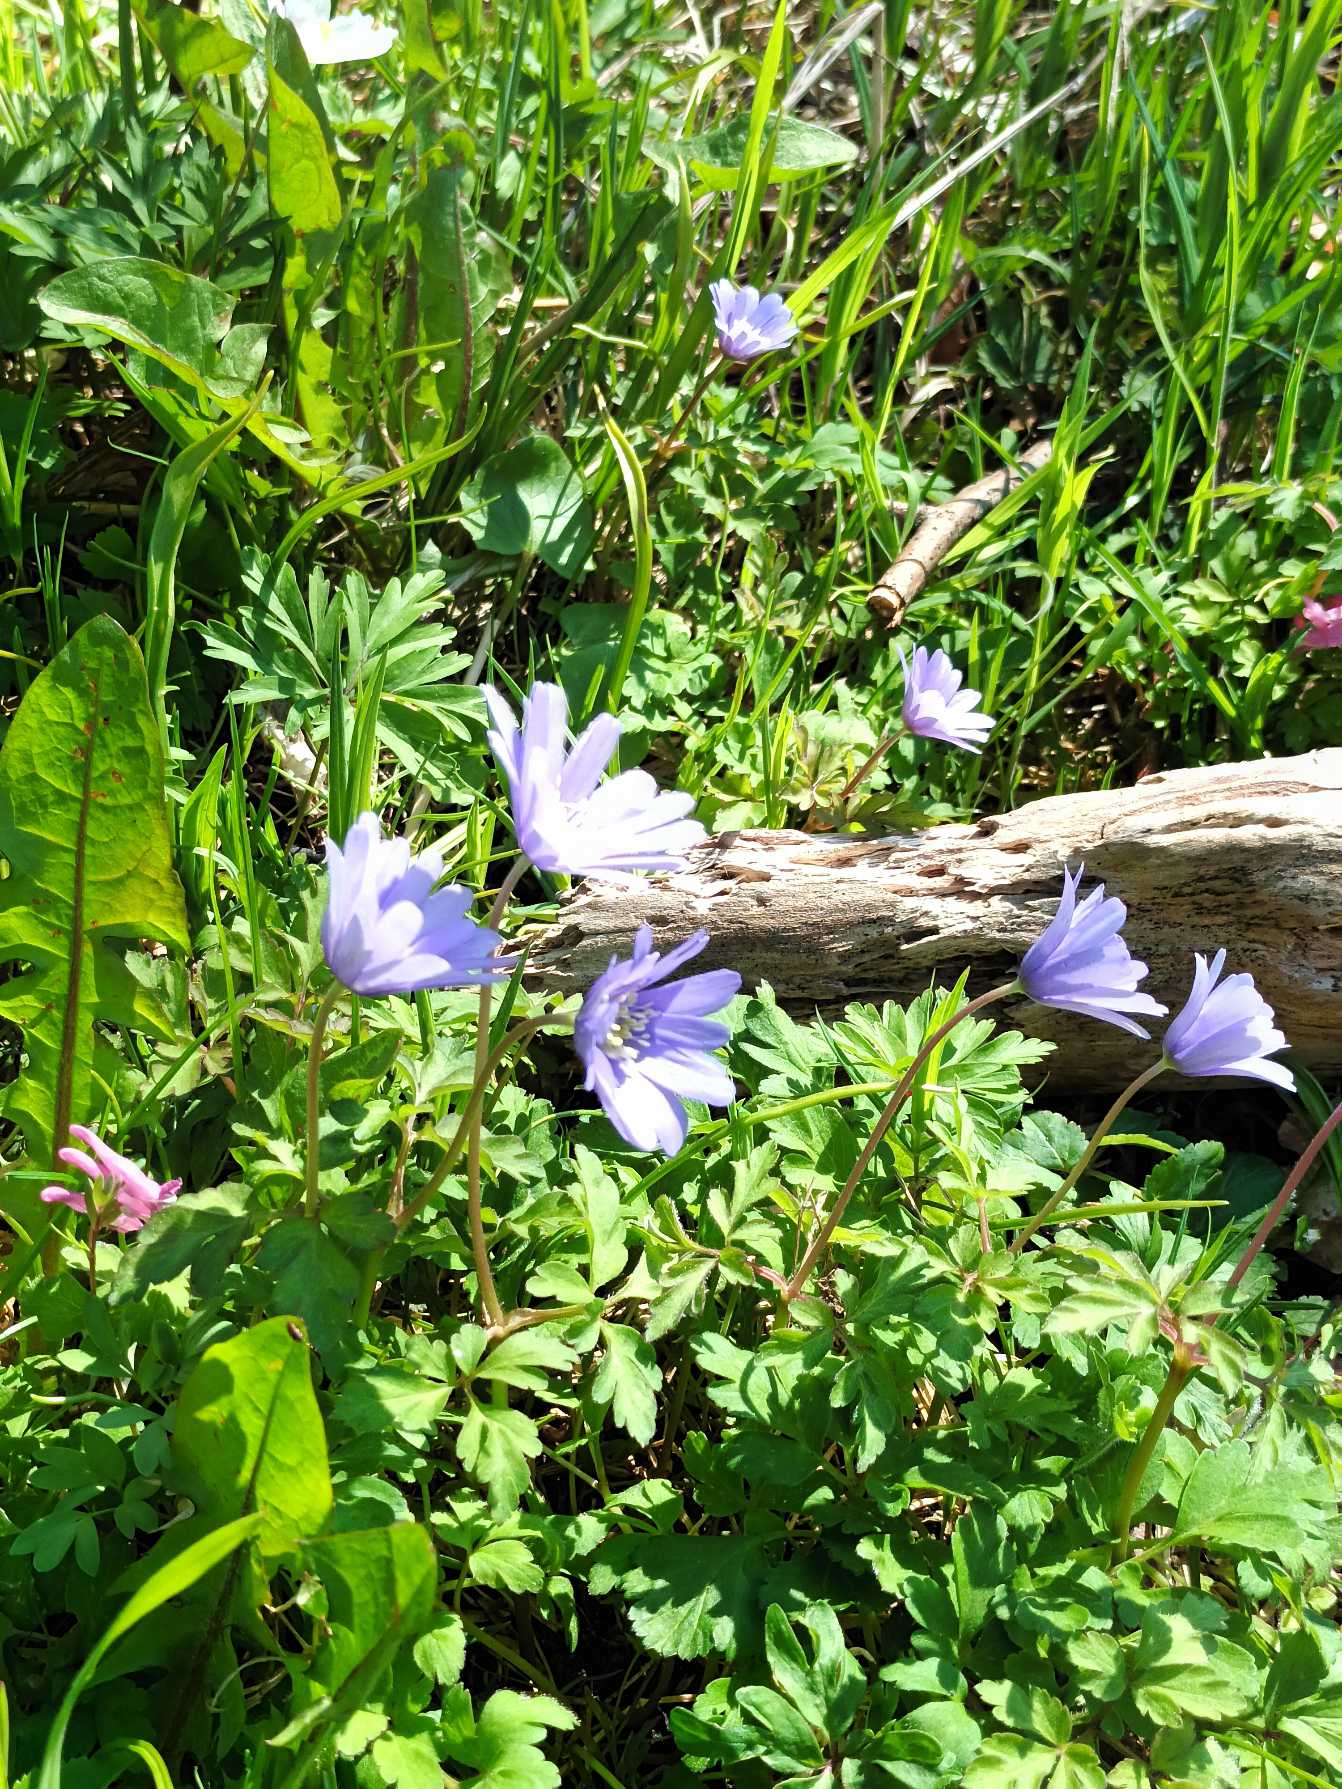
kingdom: Plantae
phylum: Tracheophyta
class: Magnoliopsida
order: Ranunculales
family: Ranunculaceae
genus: Anemone
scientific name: Anemone apennina
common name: Apenniner-anemone
